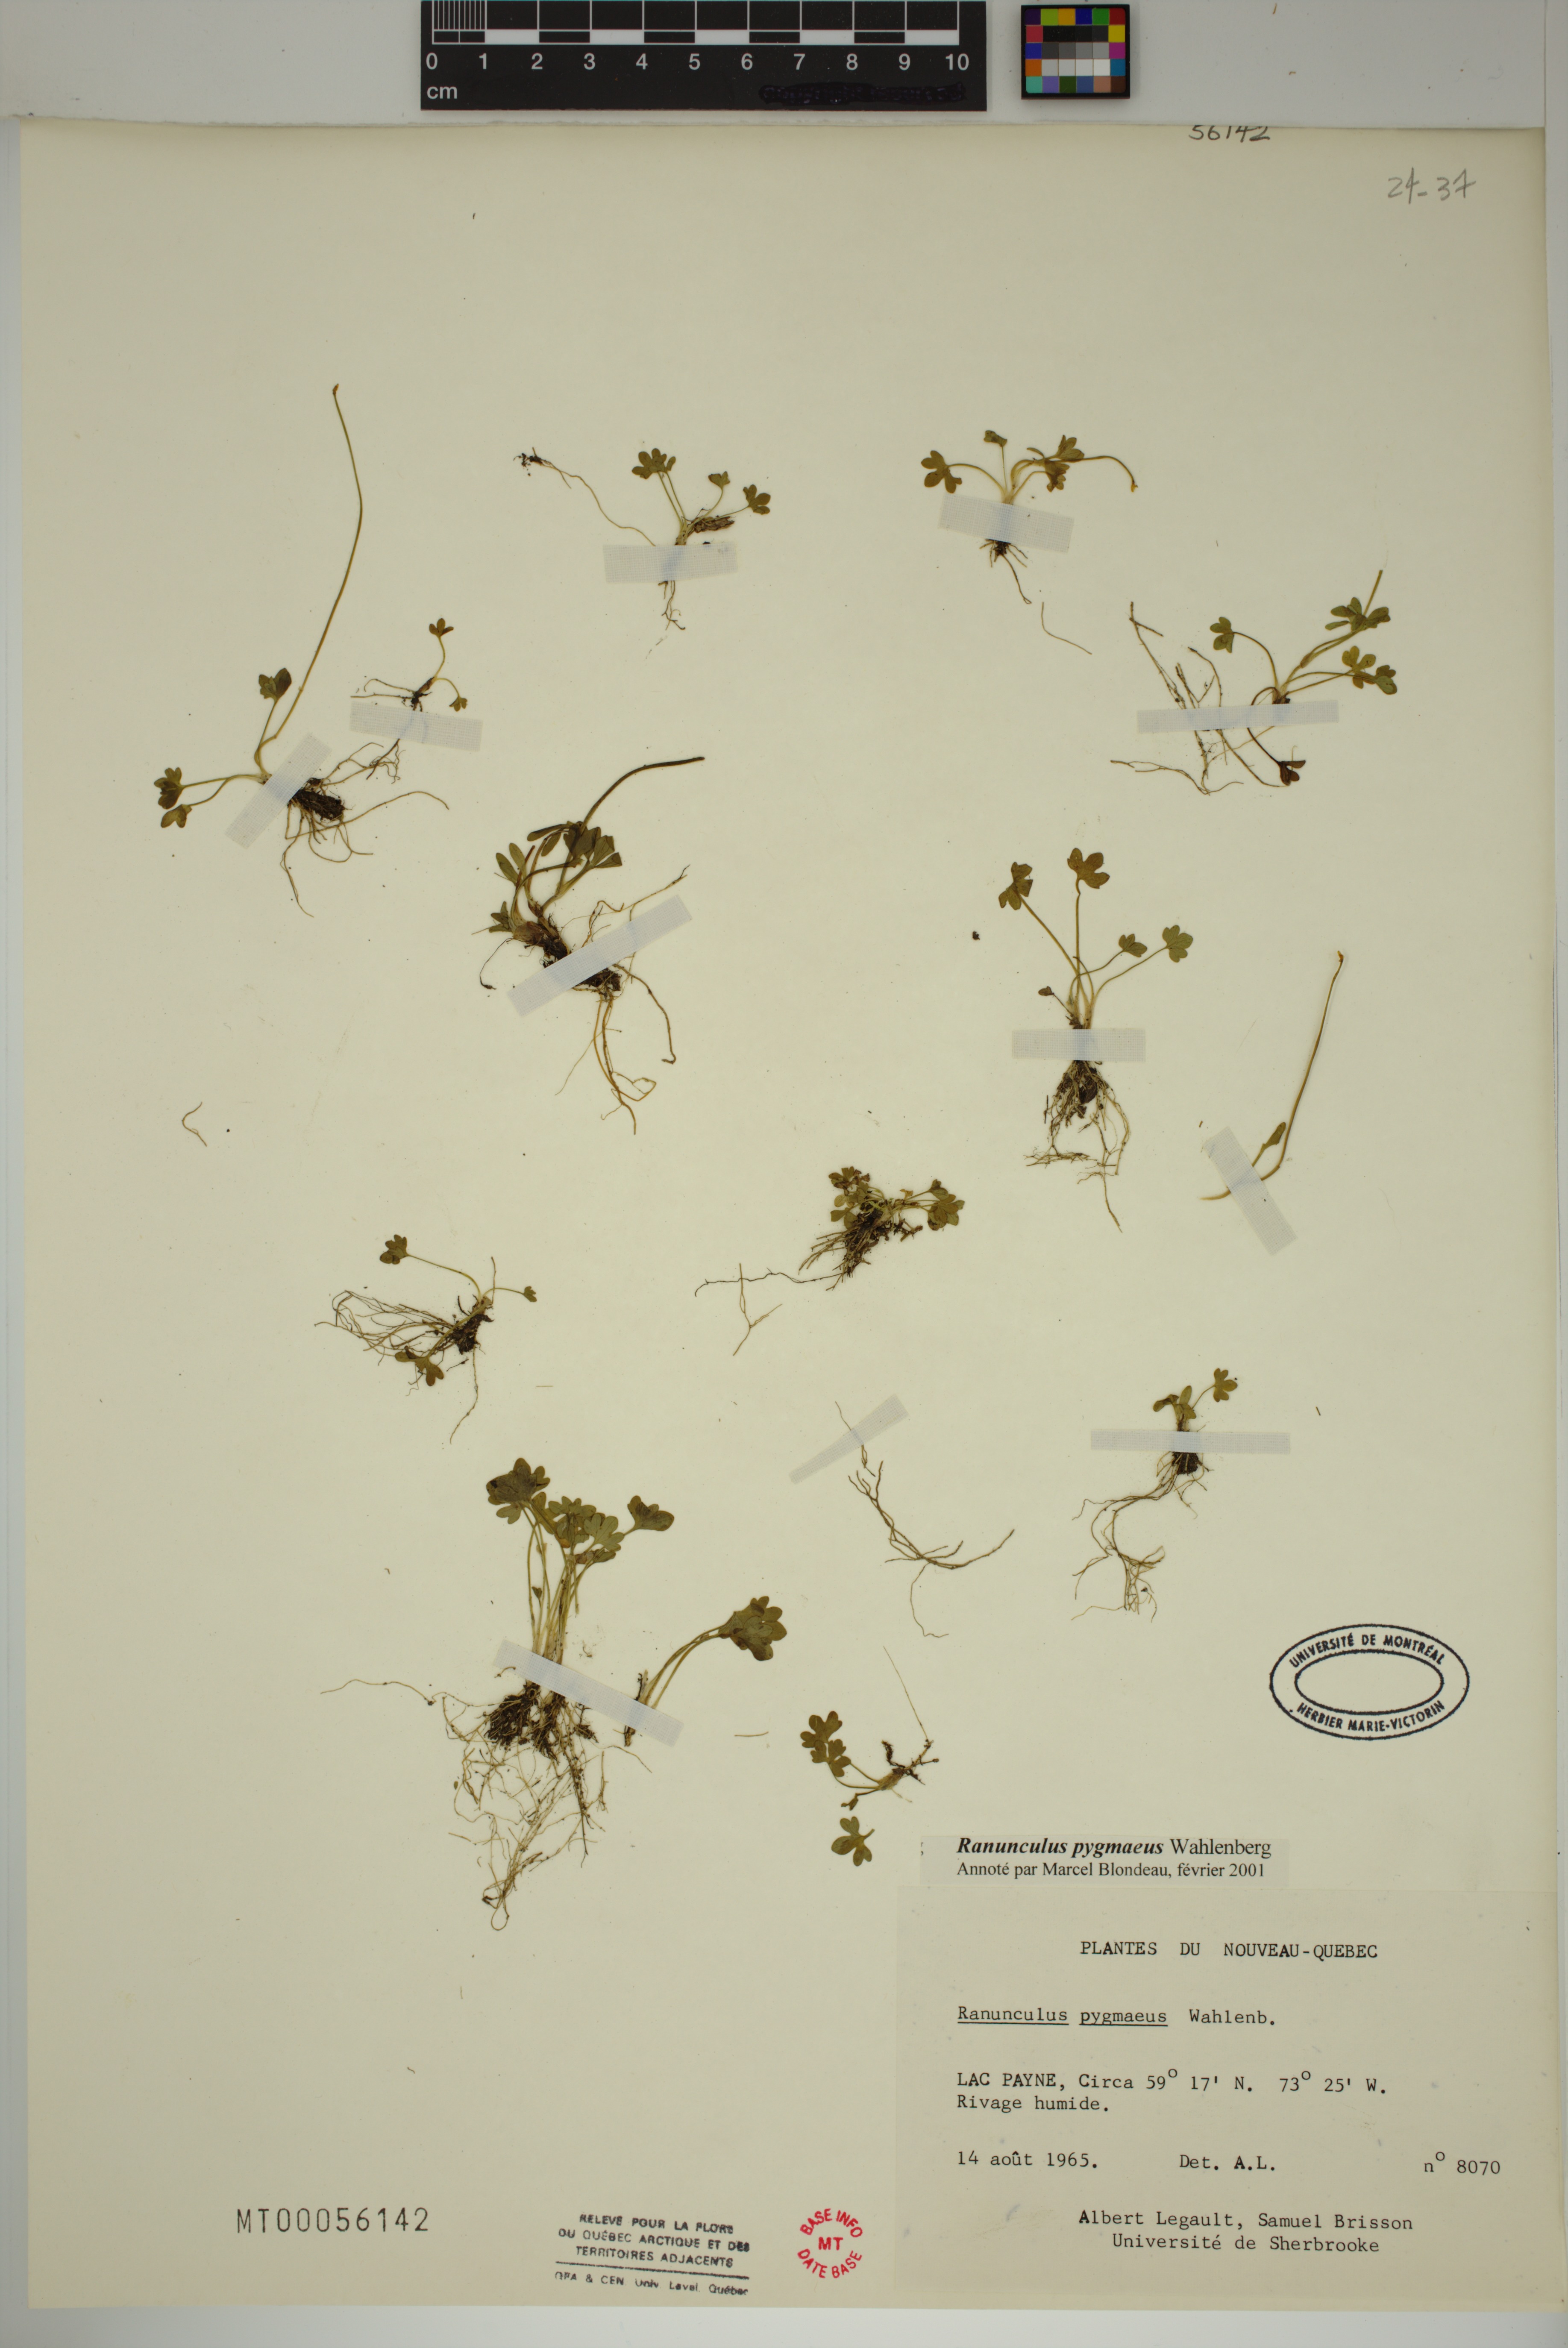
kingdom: Plantae
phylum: Tracheophyta
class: Magnoliopsida
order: Ranunculales
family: Ranunculaceae
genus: Ranunculus
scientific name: Ranunculus pygmaeus
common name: Dwarf buttercup
